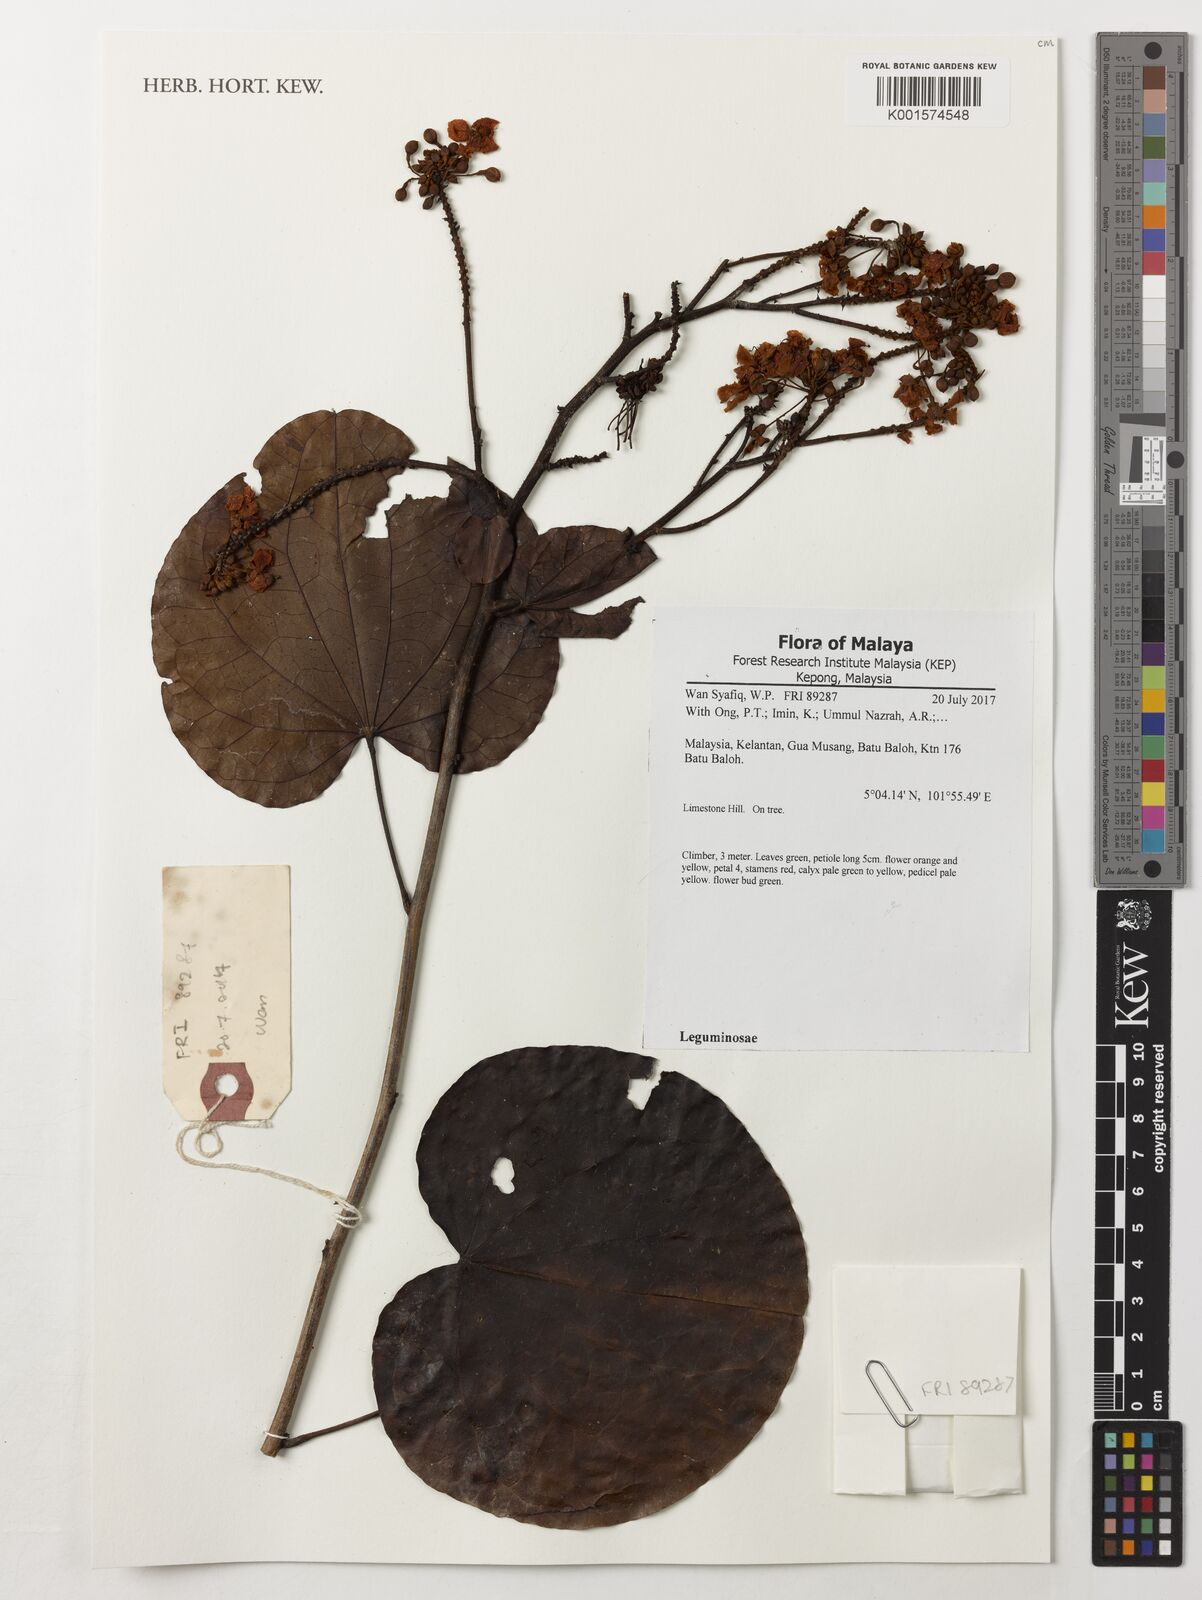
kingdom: Plantae
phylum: Tracheophyta
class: Magnoliopsida
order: Fabales
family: Fabaceae
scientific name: Fabaceae
